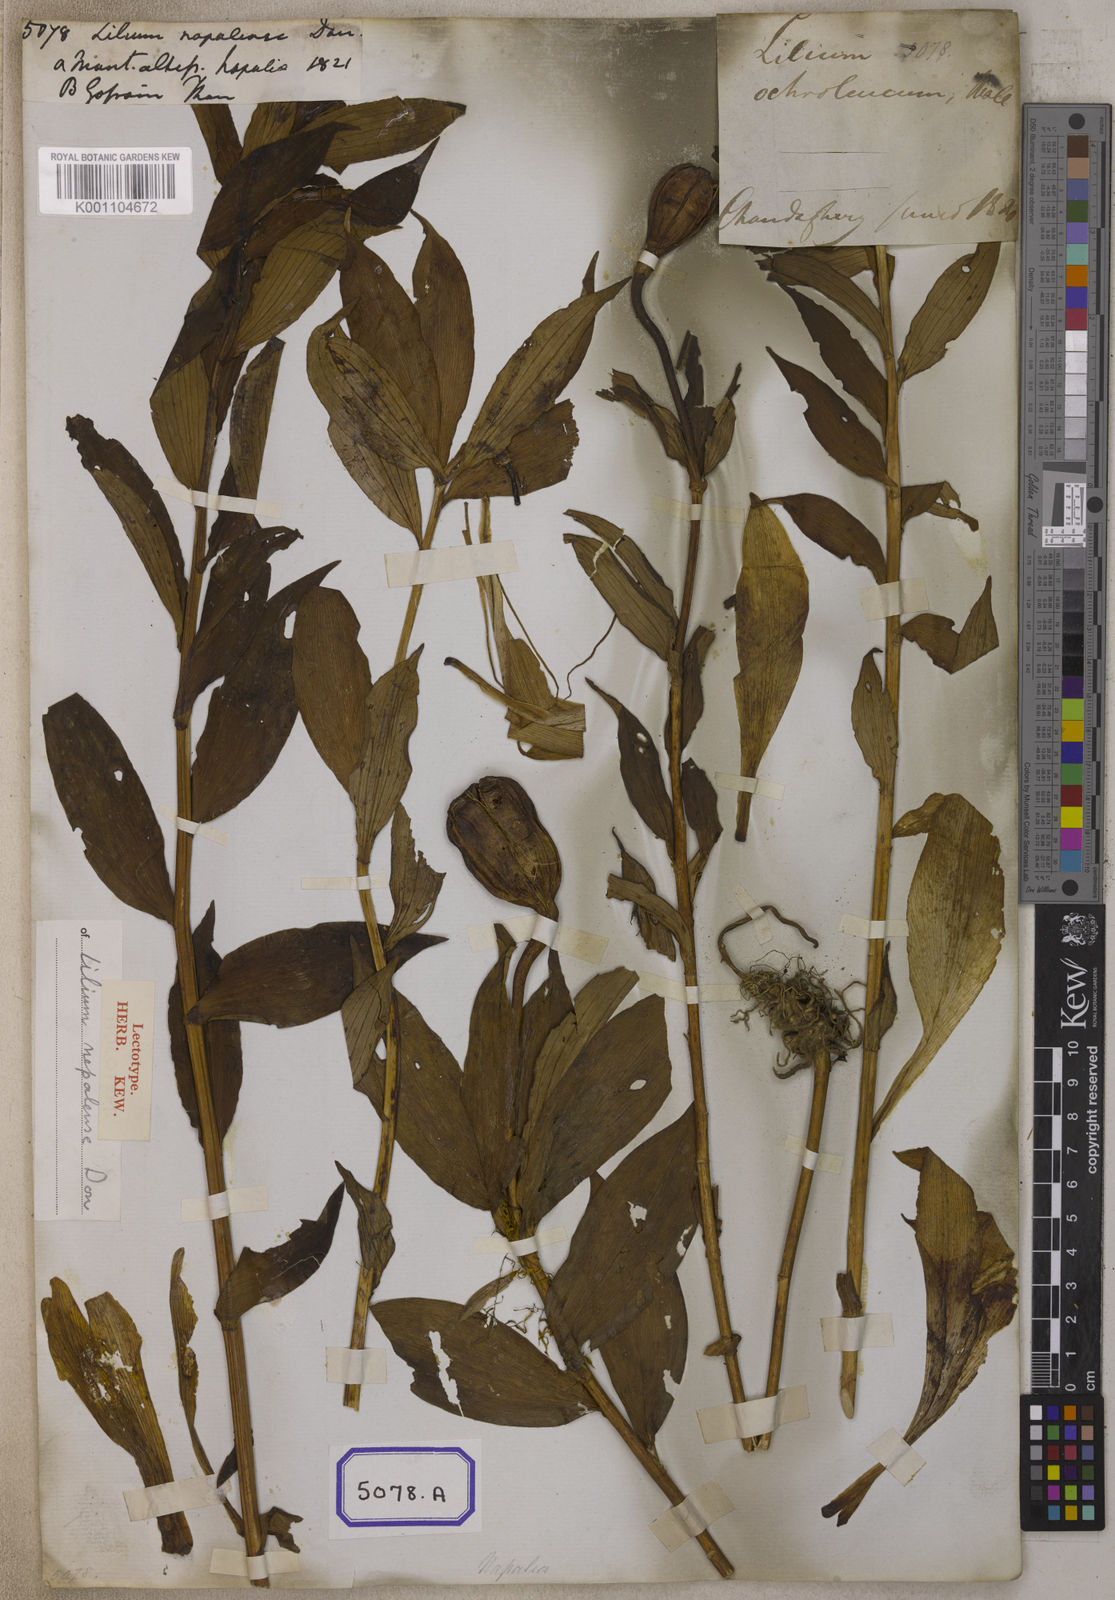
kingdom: Plantae
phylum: Tracheophyta
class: Liliopsida
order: Liliales
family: Liliaceae
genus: Lilium
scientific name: Lilium nepalense
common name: Nepal lily
